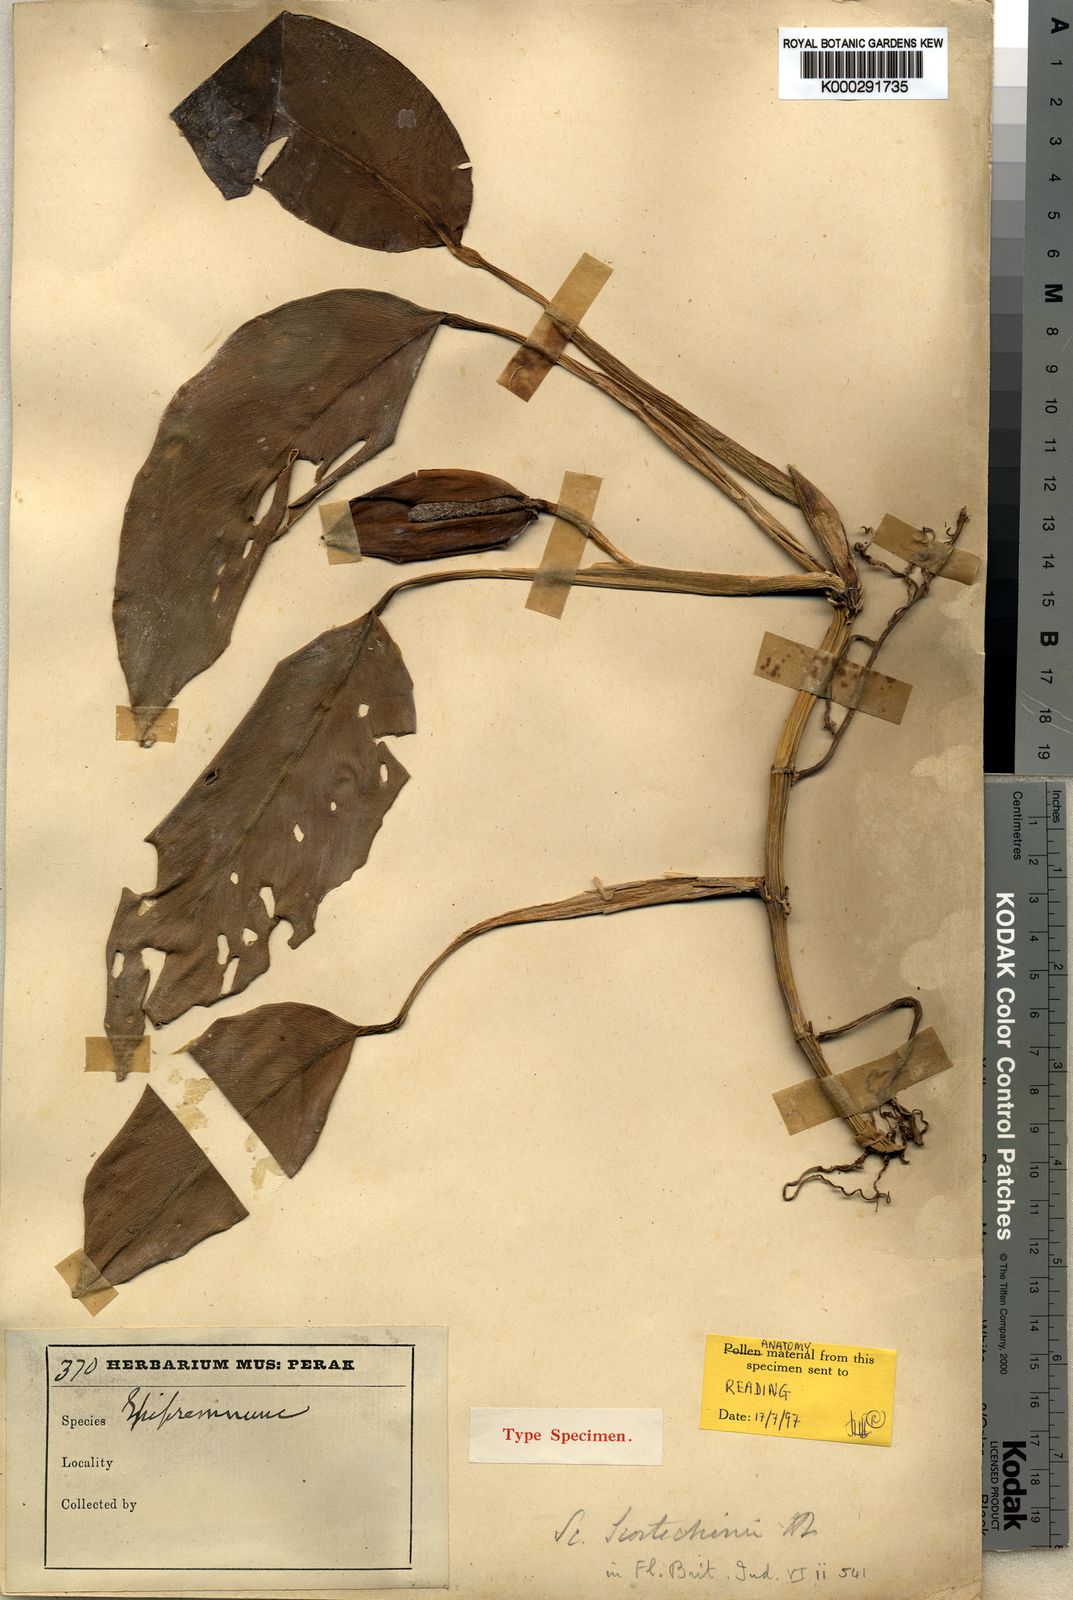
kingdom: Plantae
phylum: Tracheophyta
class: Liliopsida
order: Alismatales
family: Araceae
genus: Scindapsus
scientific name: Scindapsus scortechinii
